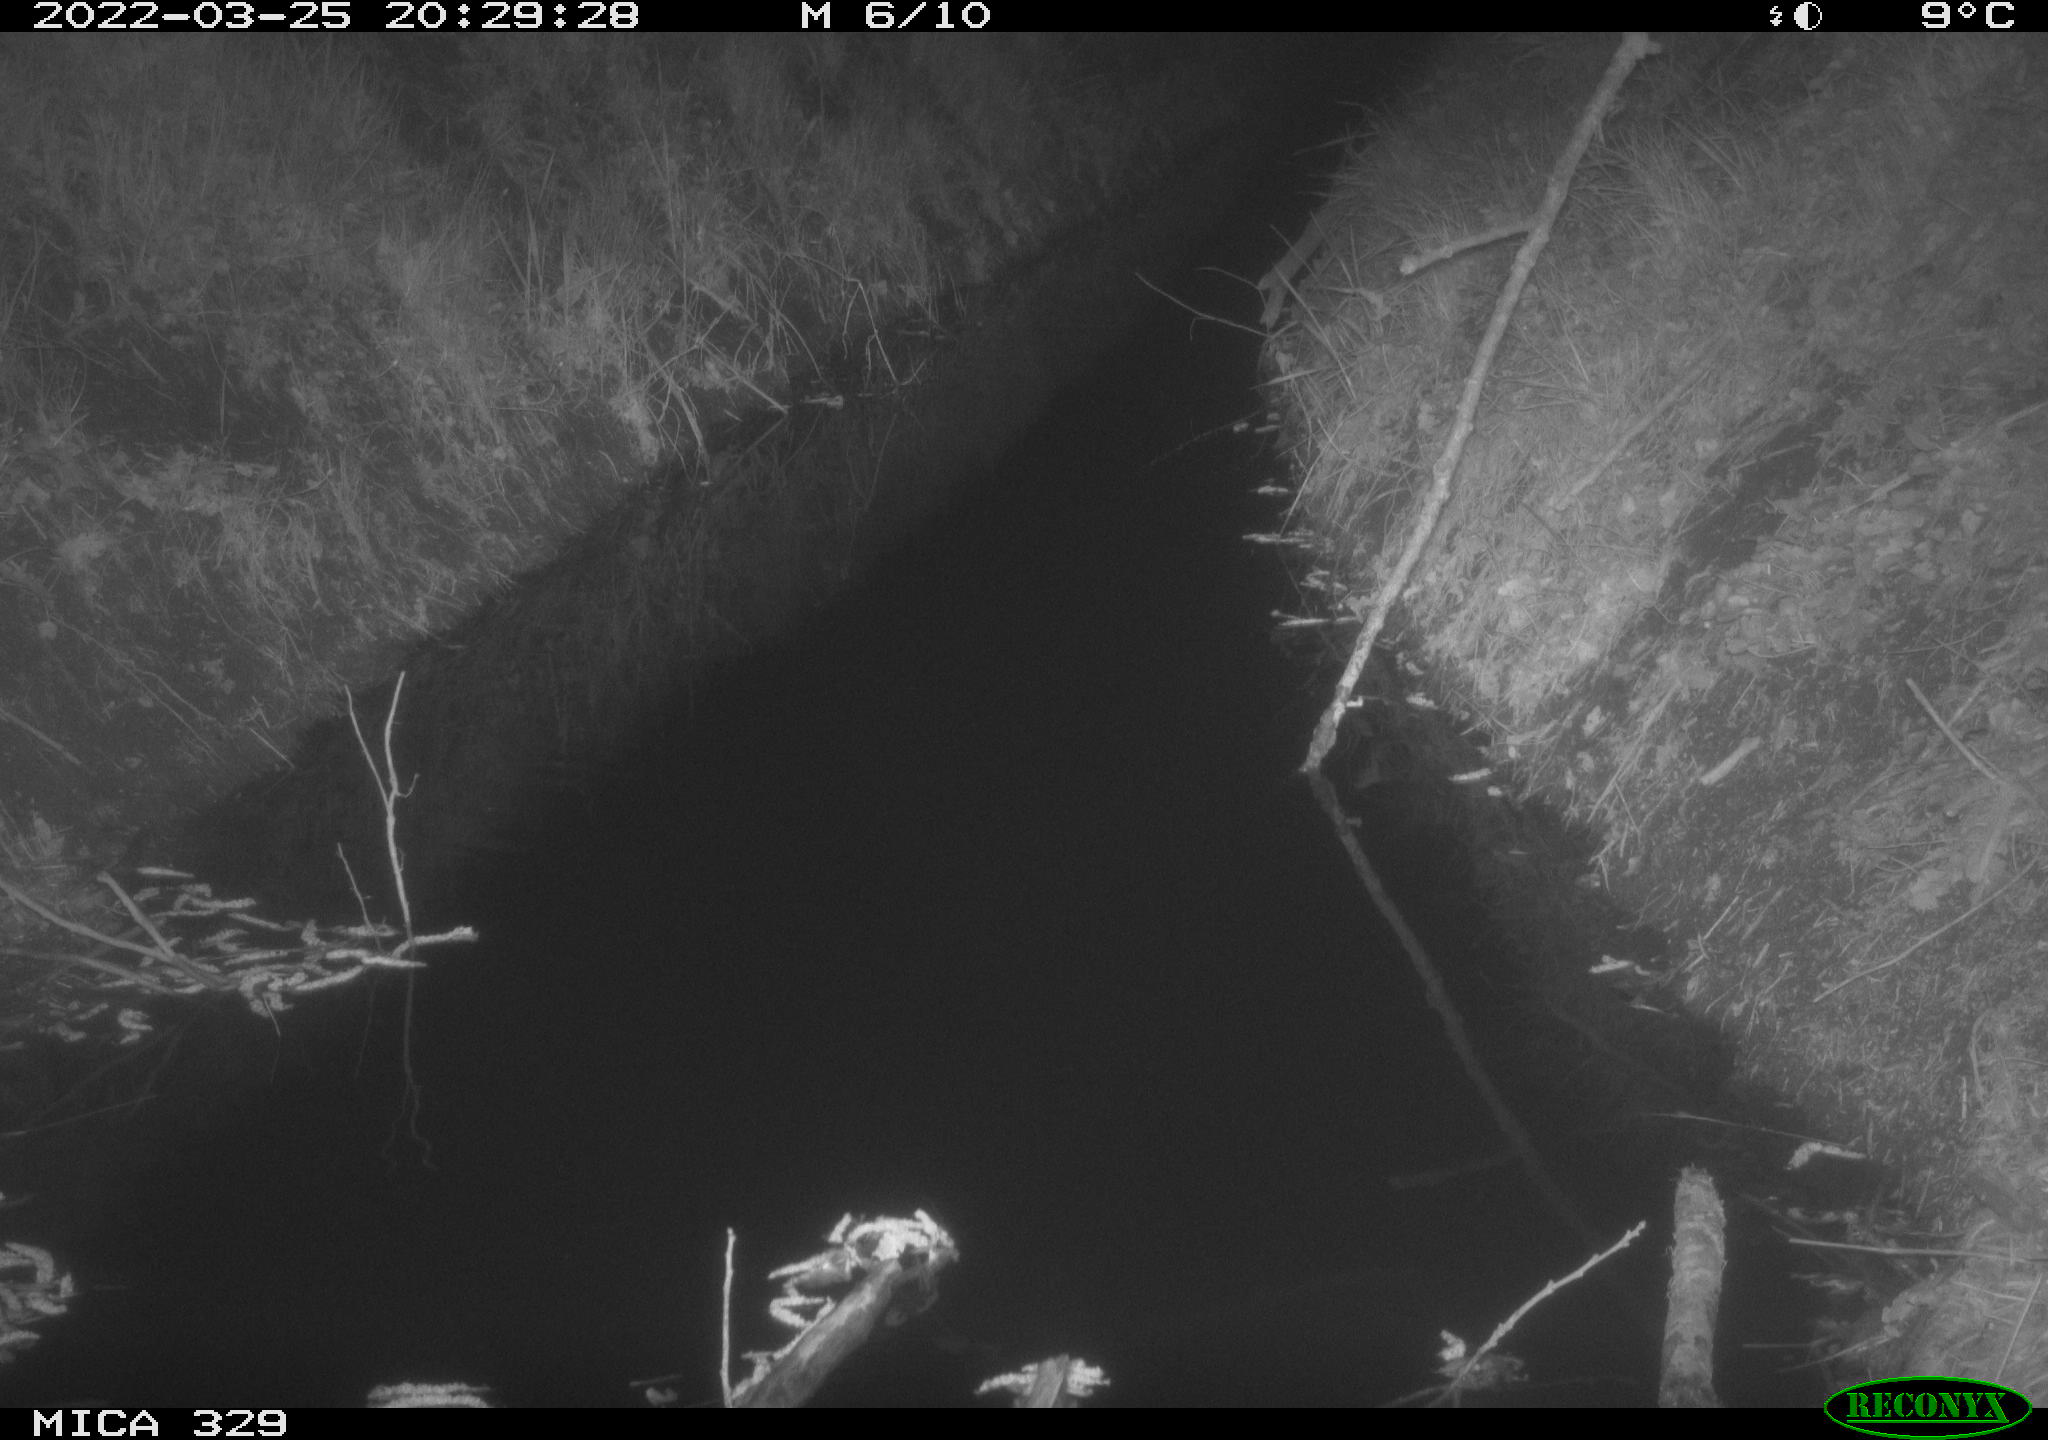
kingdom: Animalia
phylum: Chordata
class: Mammalia
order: Rodentia
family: Muridae
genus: Rattus
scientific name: Rattus norvegicus
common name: Brown rat
